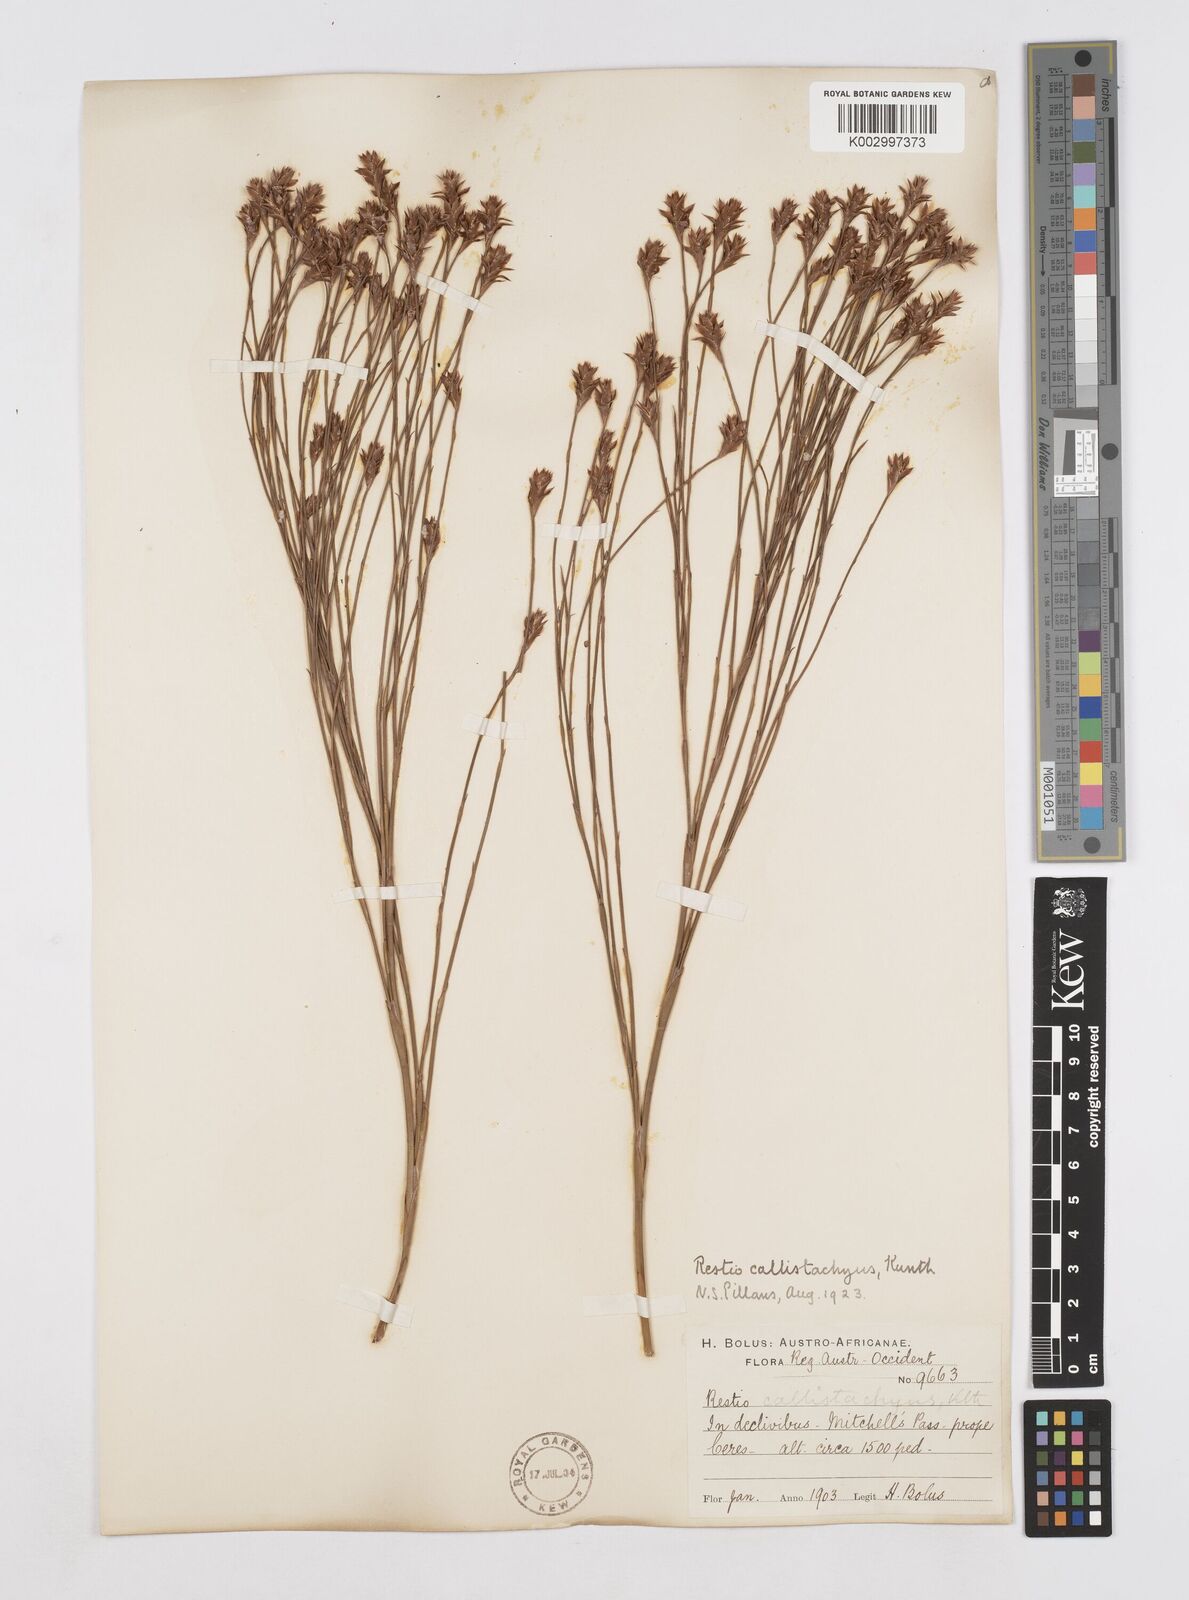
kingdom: Plantae
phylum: Tracheophyta
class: Liliopsida
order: Poales
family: Restionaceae
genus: Platycaulos
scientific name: Platycaulos callistachyus
